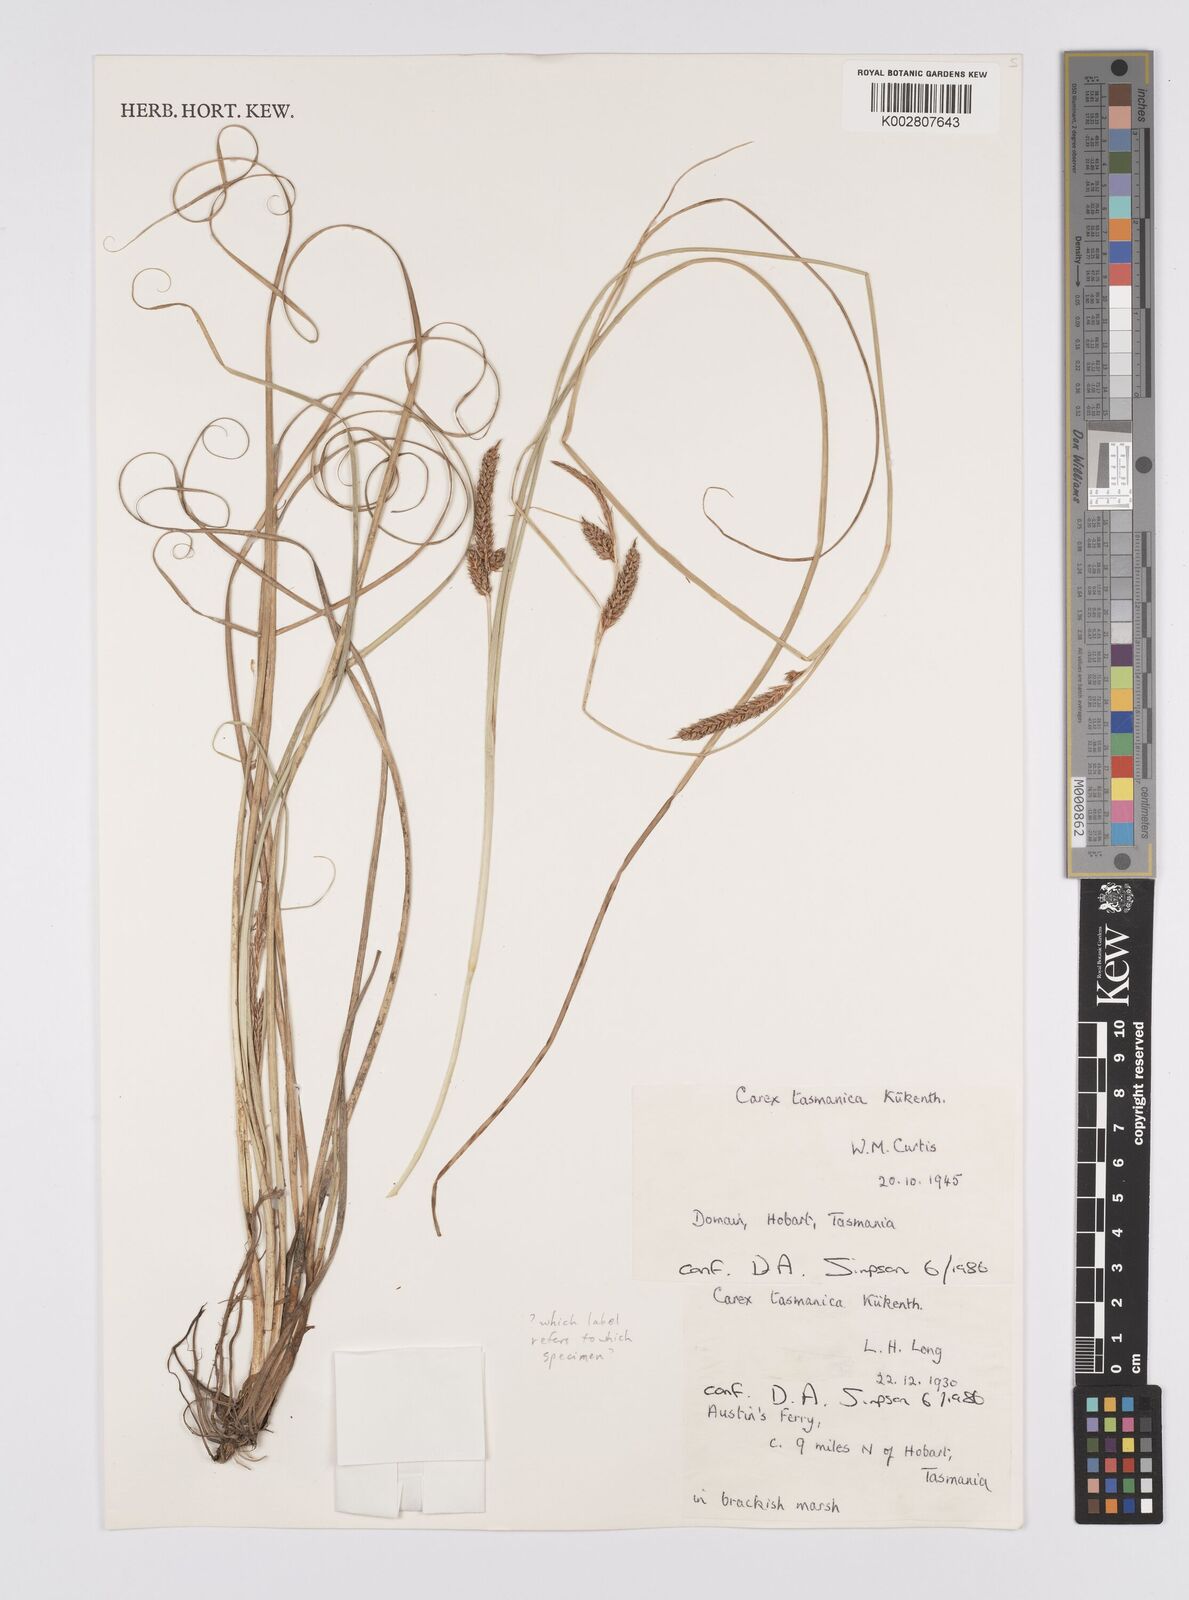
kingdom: Plantae
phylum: Tracheophyta
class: Liliopsida
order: Poales
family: Cyperaceae
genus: Carex
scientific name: Carex tasmanica
